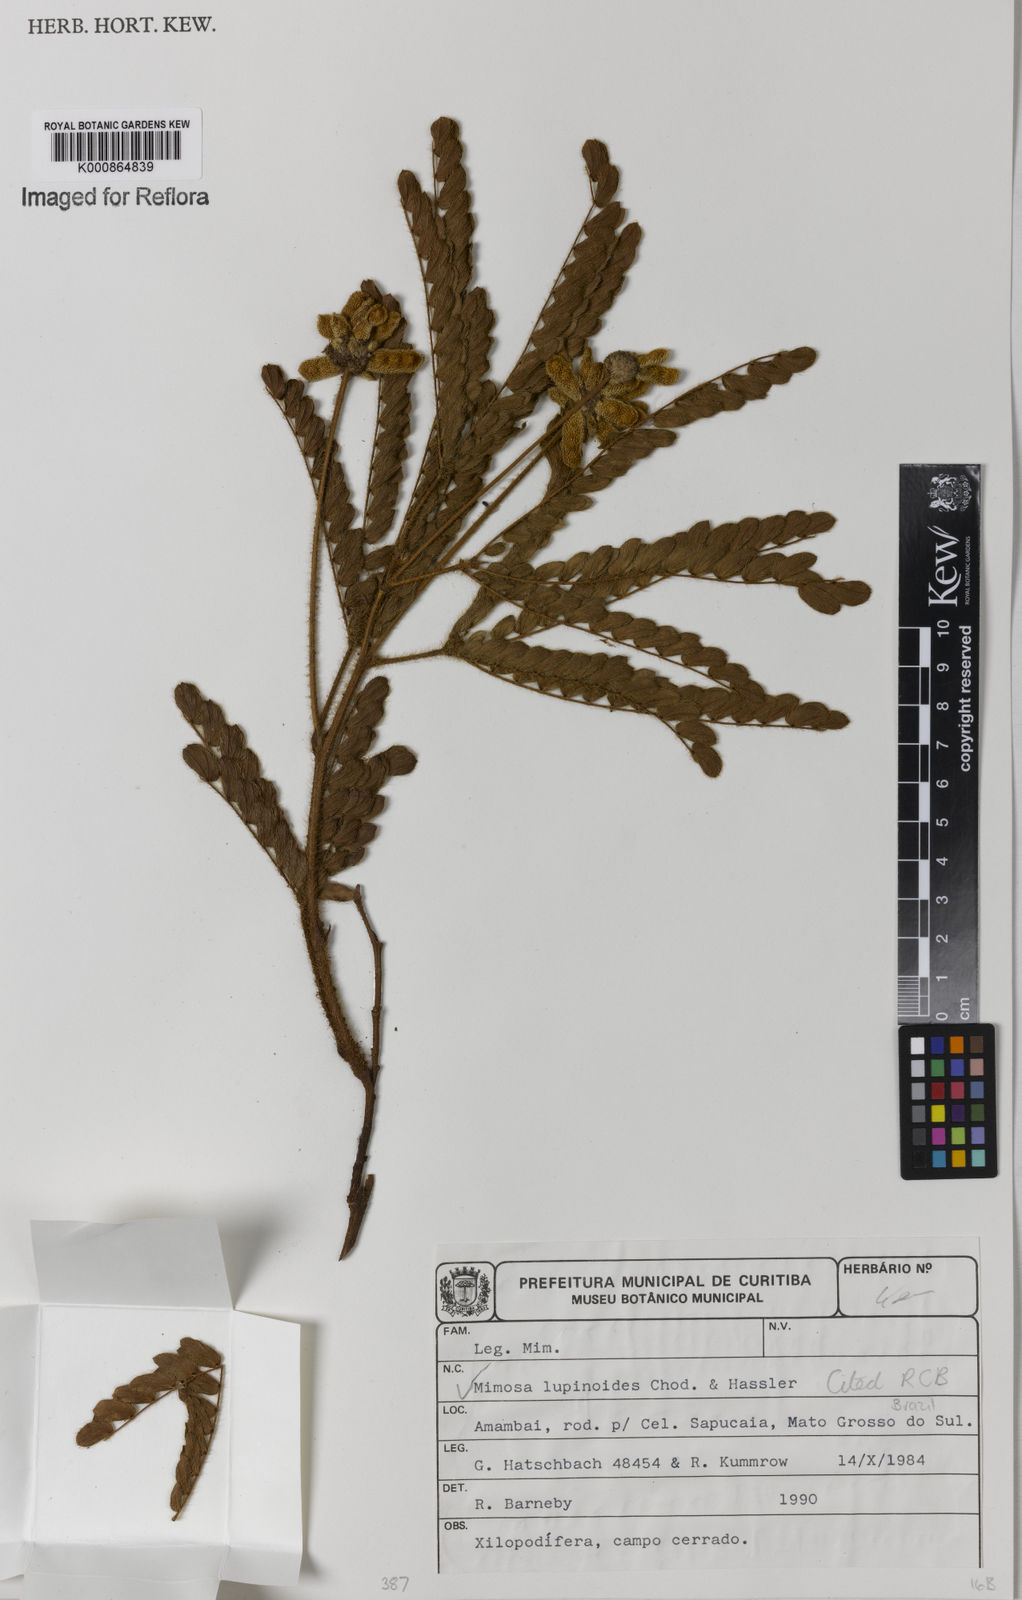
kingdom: Plantae
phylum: Tracheophyta
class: Magnoliopsida
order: Fabales
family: Fabaceae
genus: Mimosa
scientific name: Mimosa lupinoides
